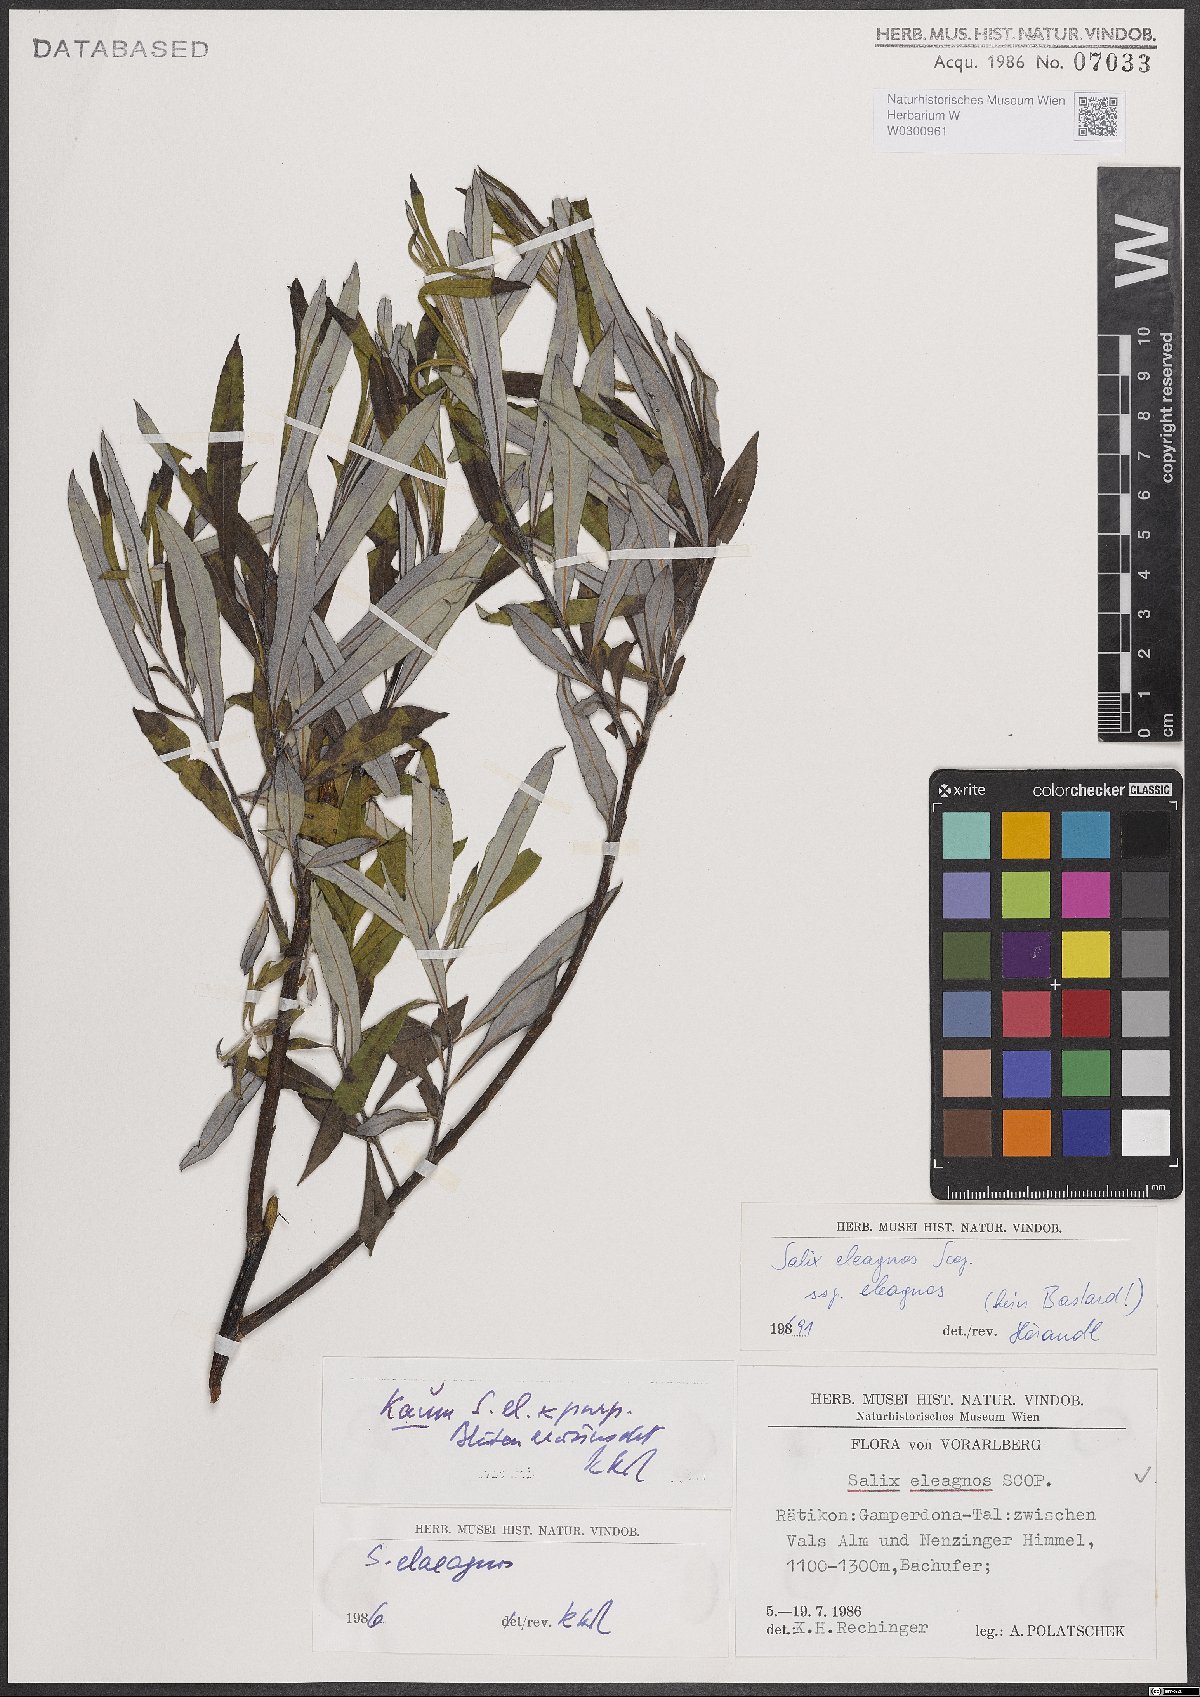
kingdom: Plantae
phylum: Tracheophyta
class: Magnoliopsida
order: Malpighiales
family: Salicaceae
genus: Salix
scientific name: Salix eleagnos
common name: Elaeagnus willow
